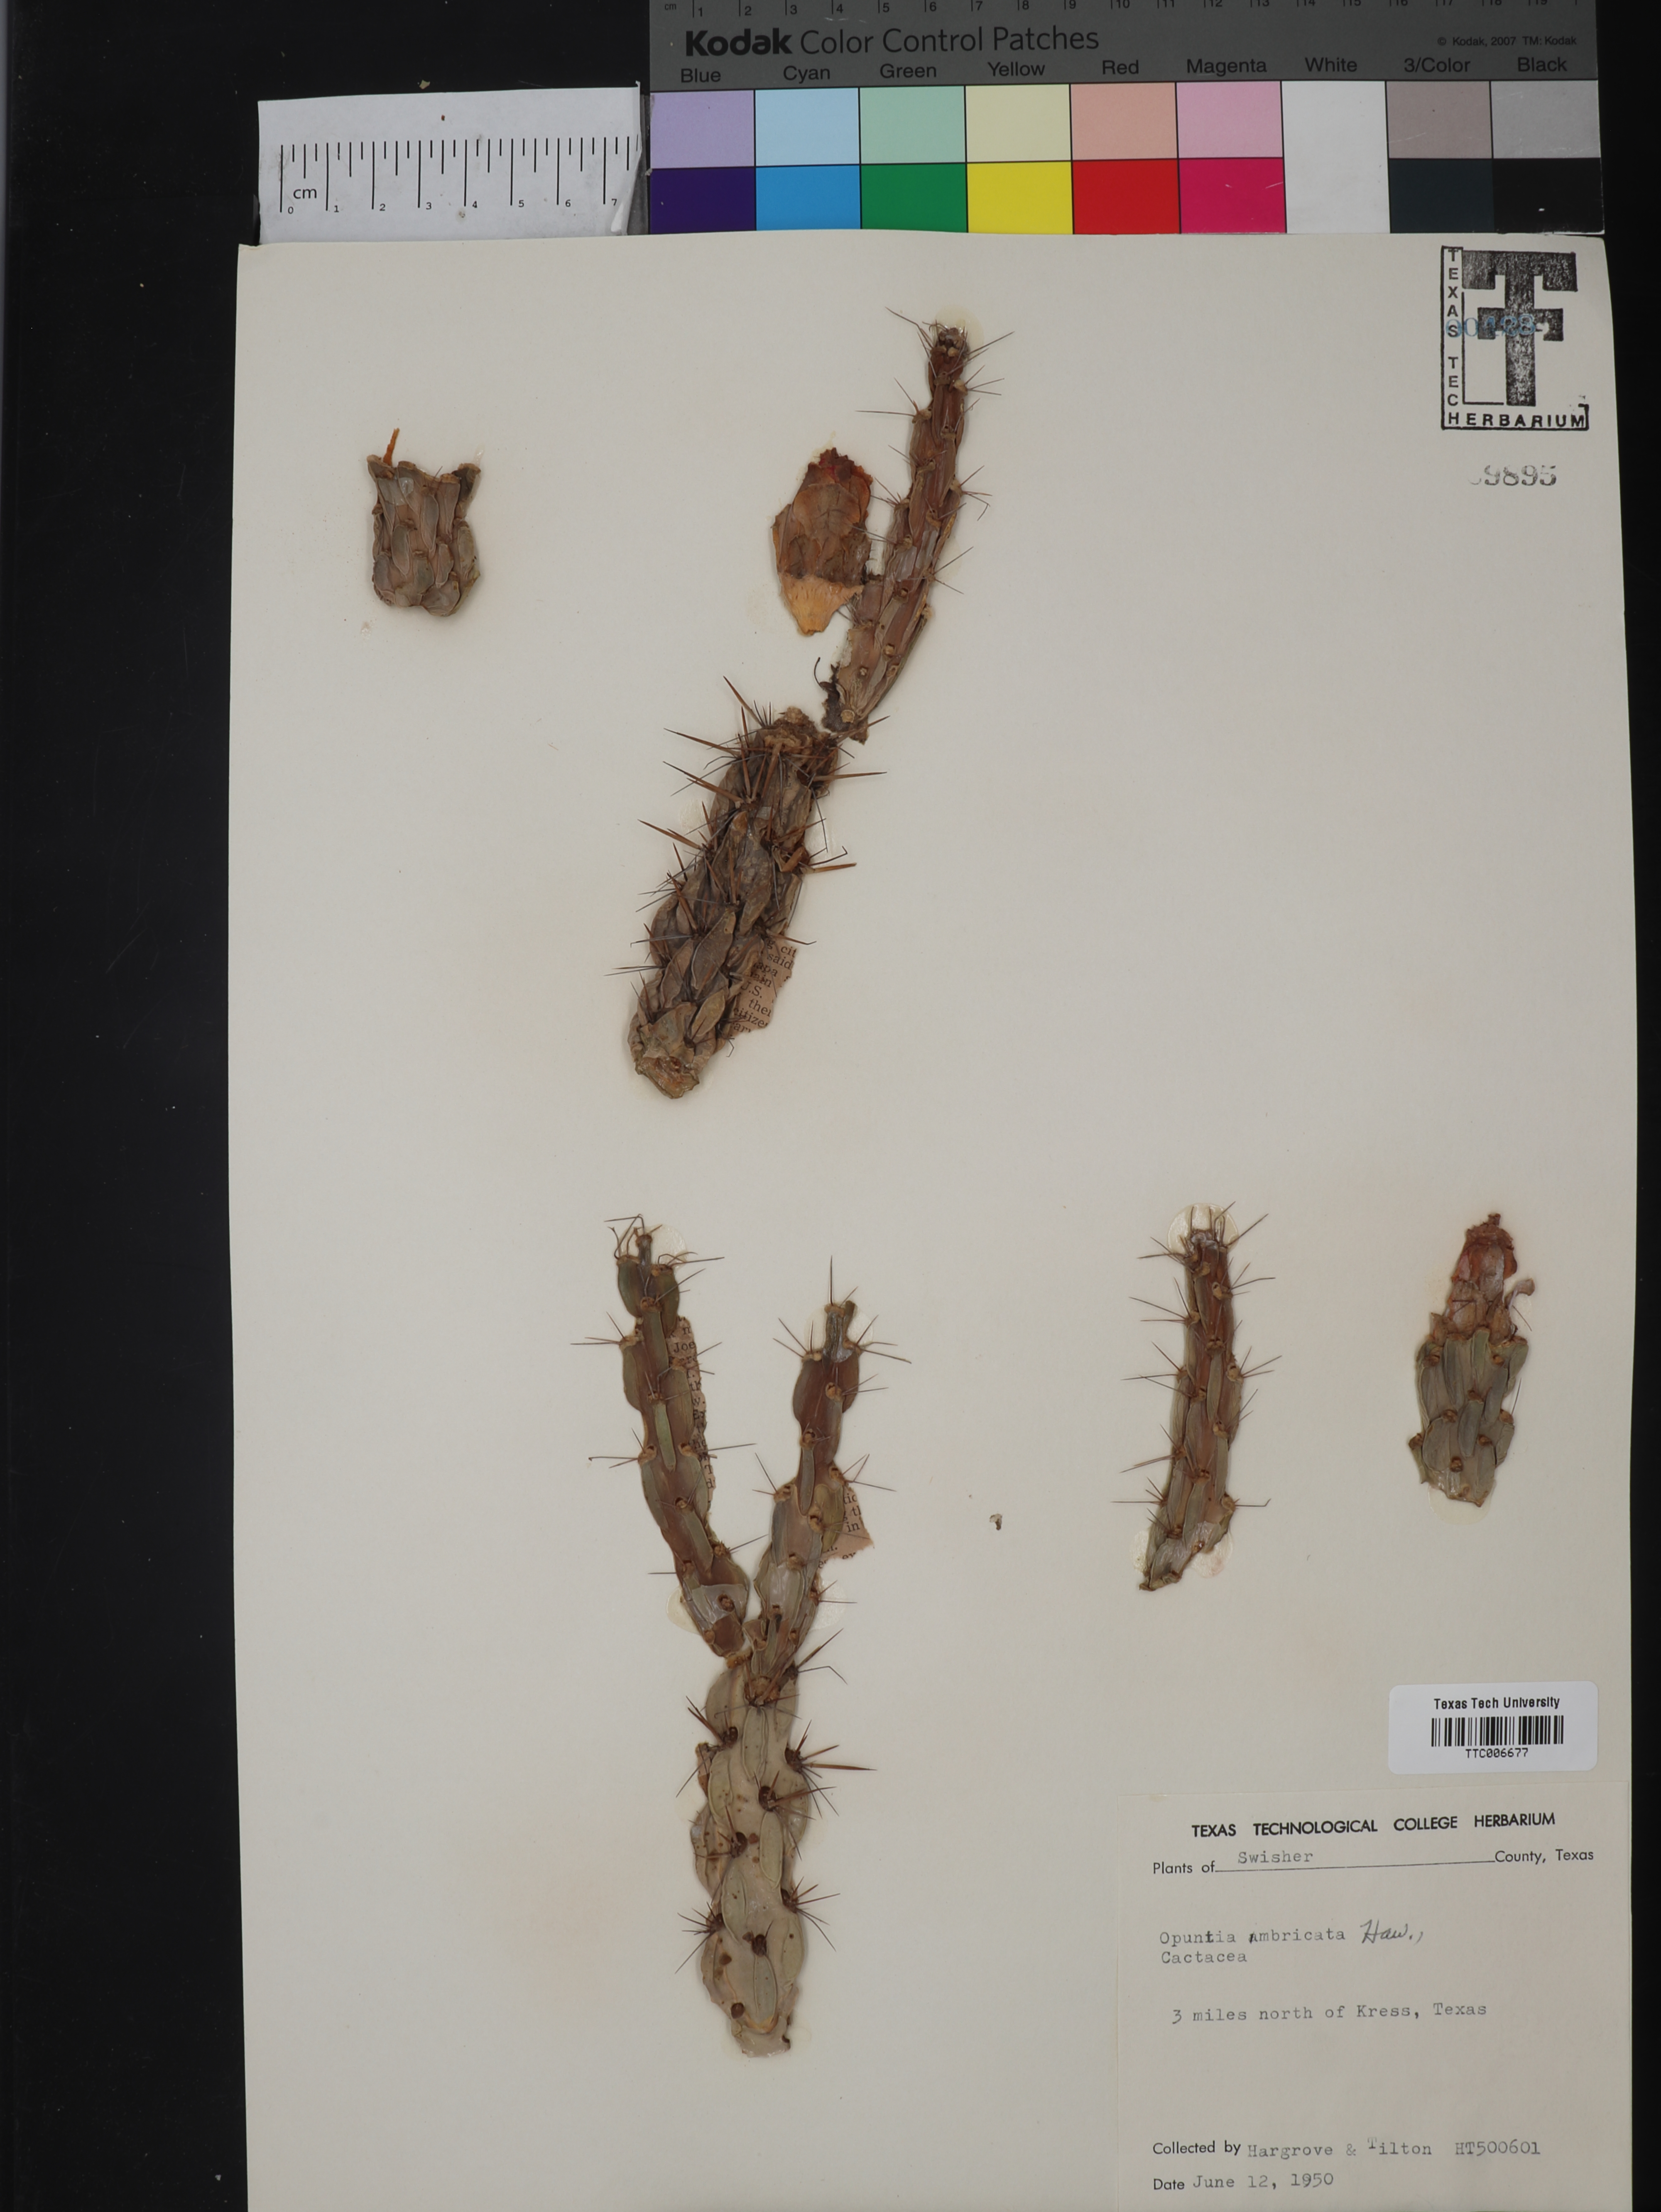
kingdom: Plantae
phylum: Tracheophyta
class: Magnoliopsida
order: Caryophyllales
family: Cactaceae
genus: Cylindropuntia
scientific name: Cylindropuntia imbricata
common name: Candelabrum cactus
